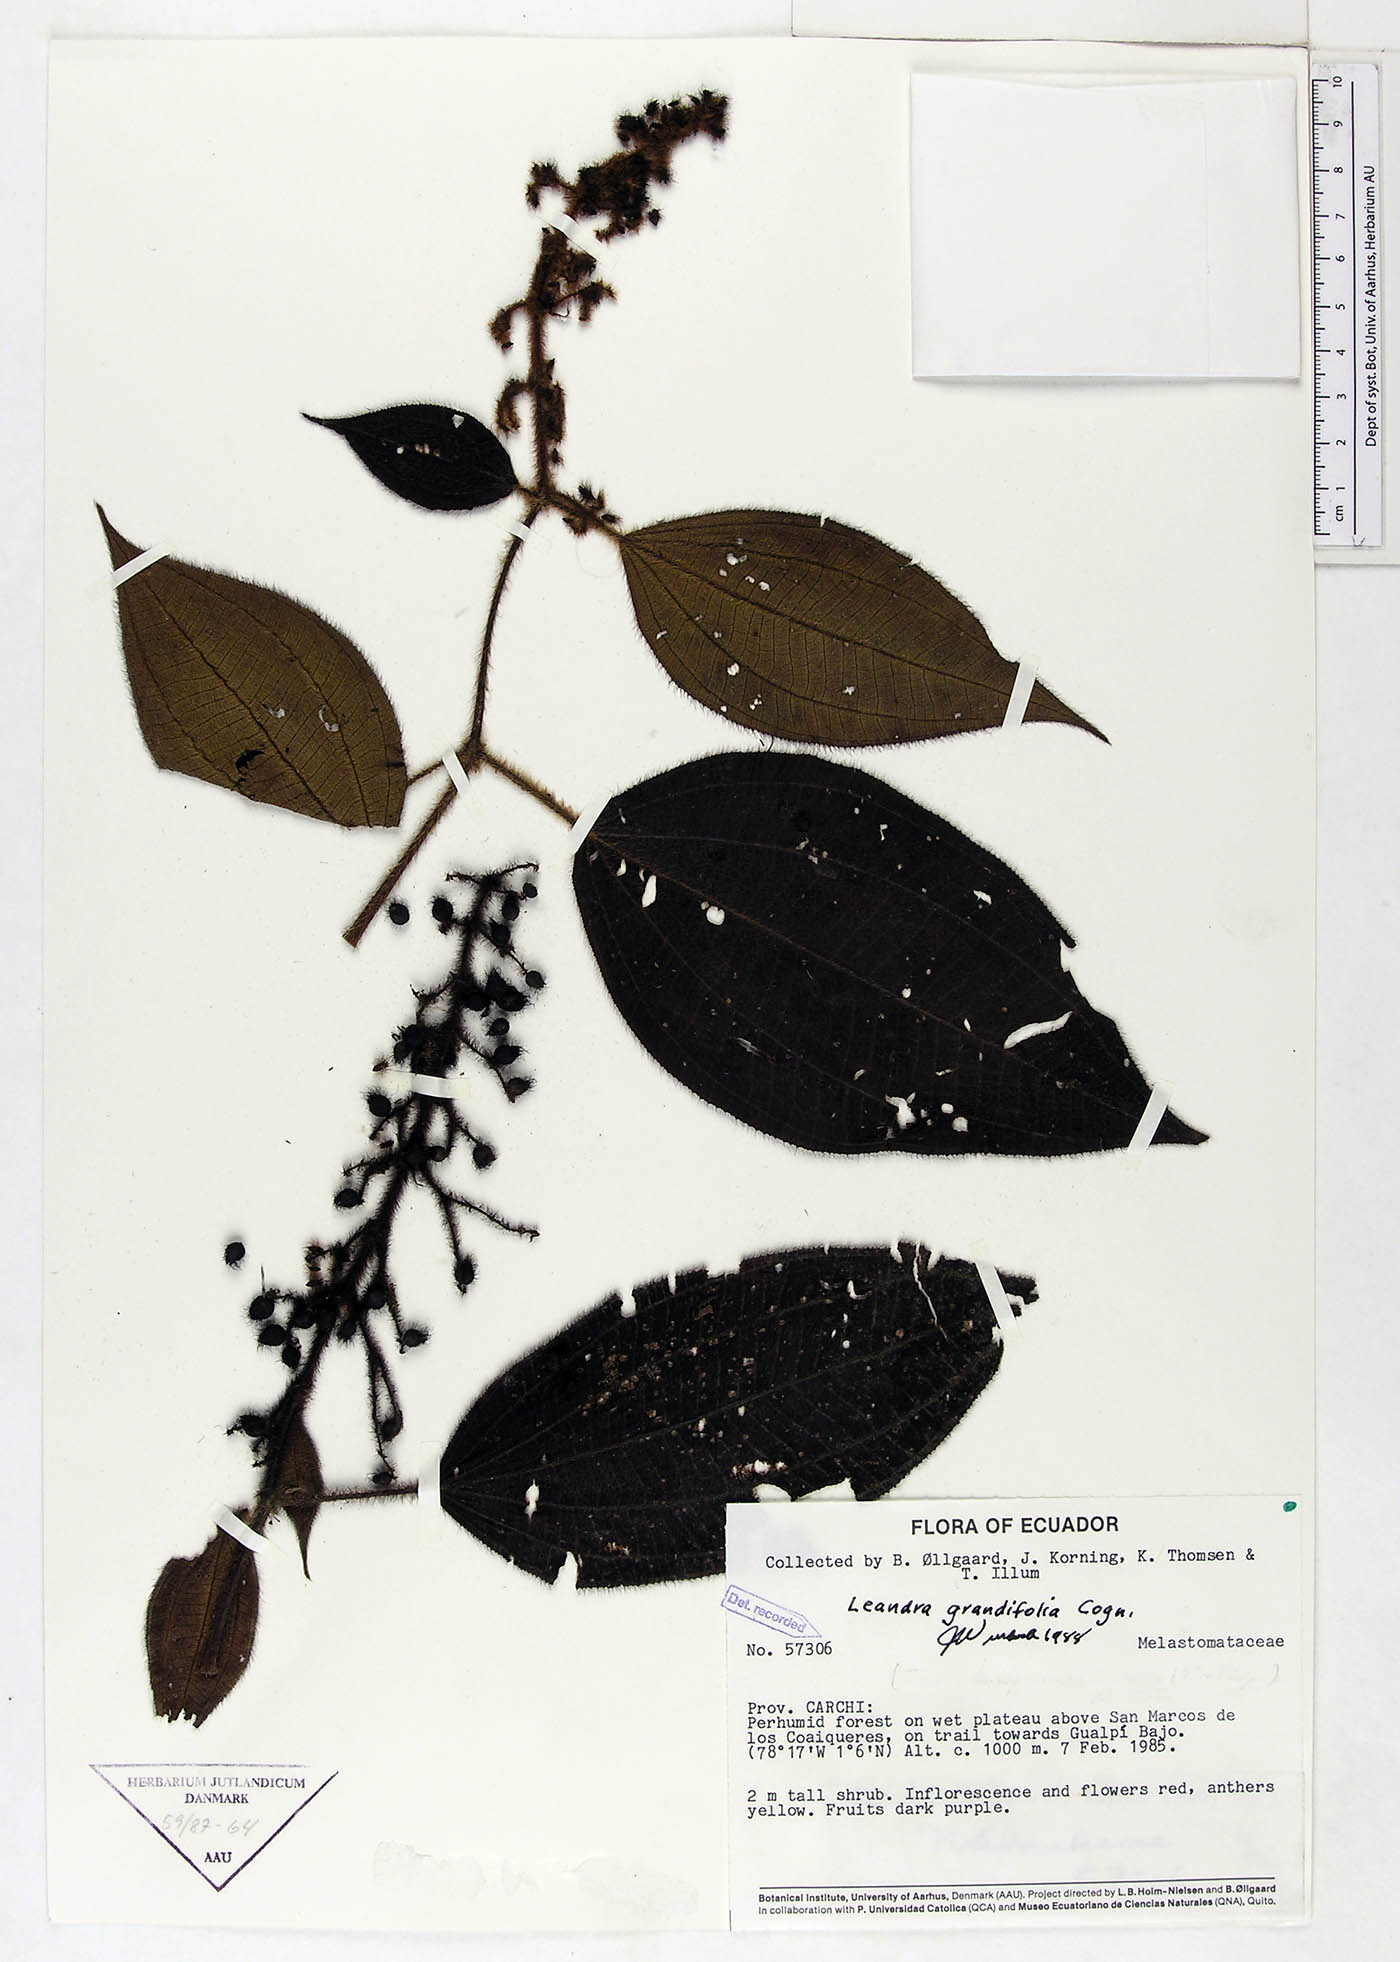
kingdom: Plantae
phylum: Tracheophyta
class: Magnoliopsida
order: Myrtales
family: Melastomataceae
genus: Miconia
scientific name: Miconia secungrandifolia
